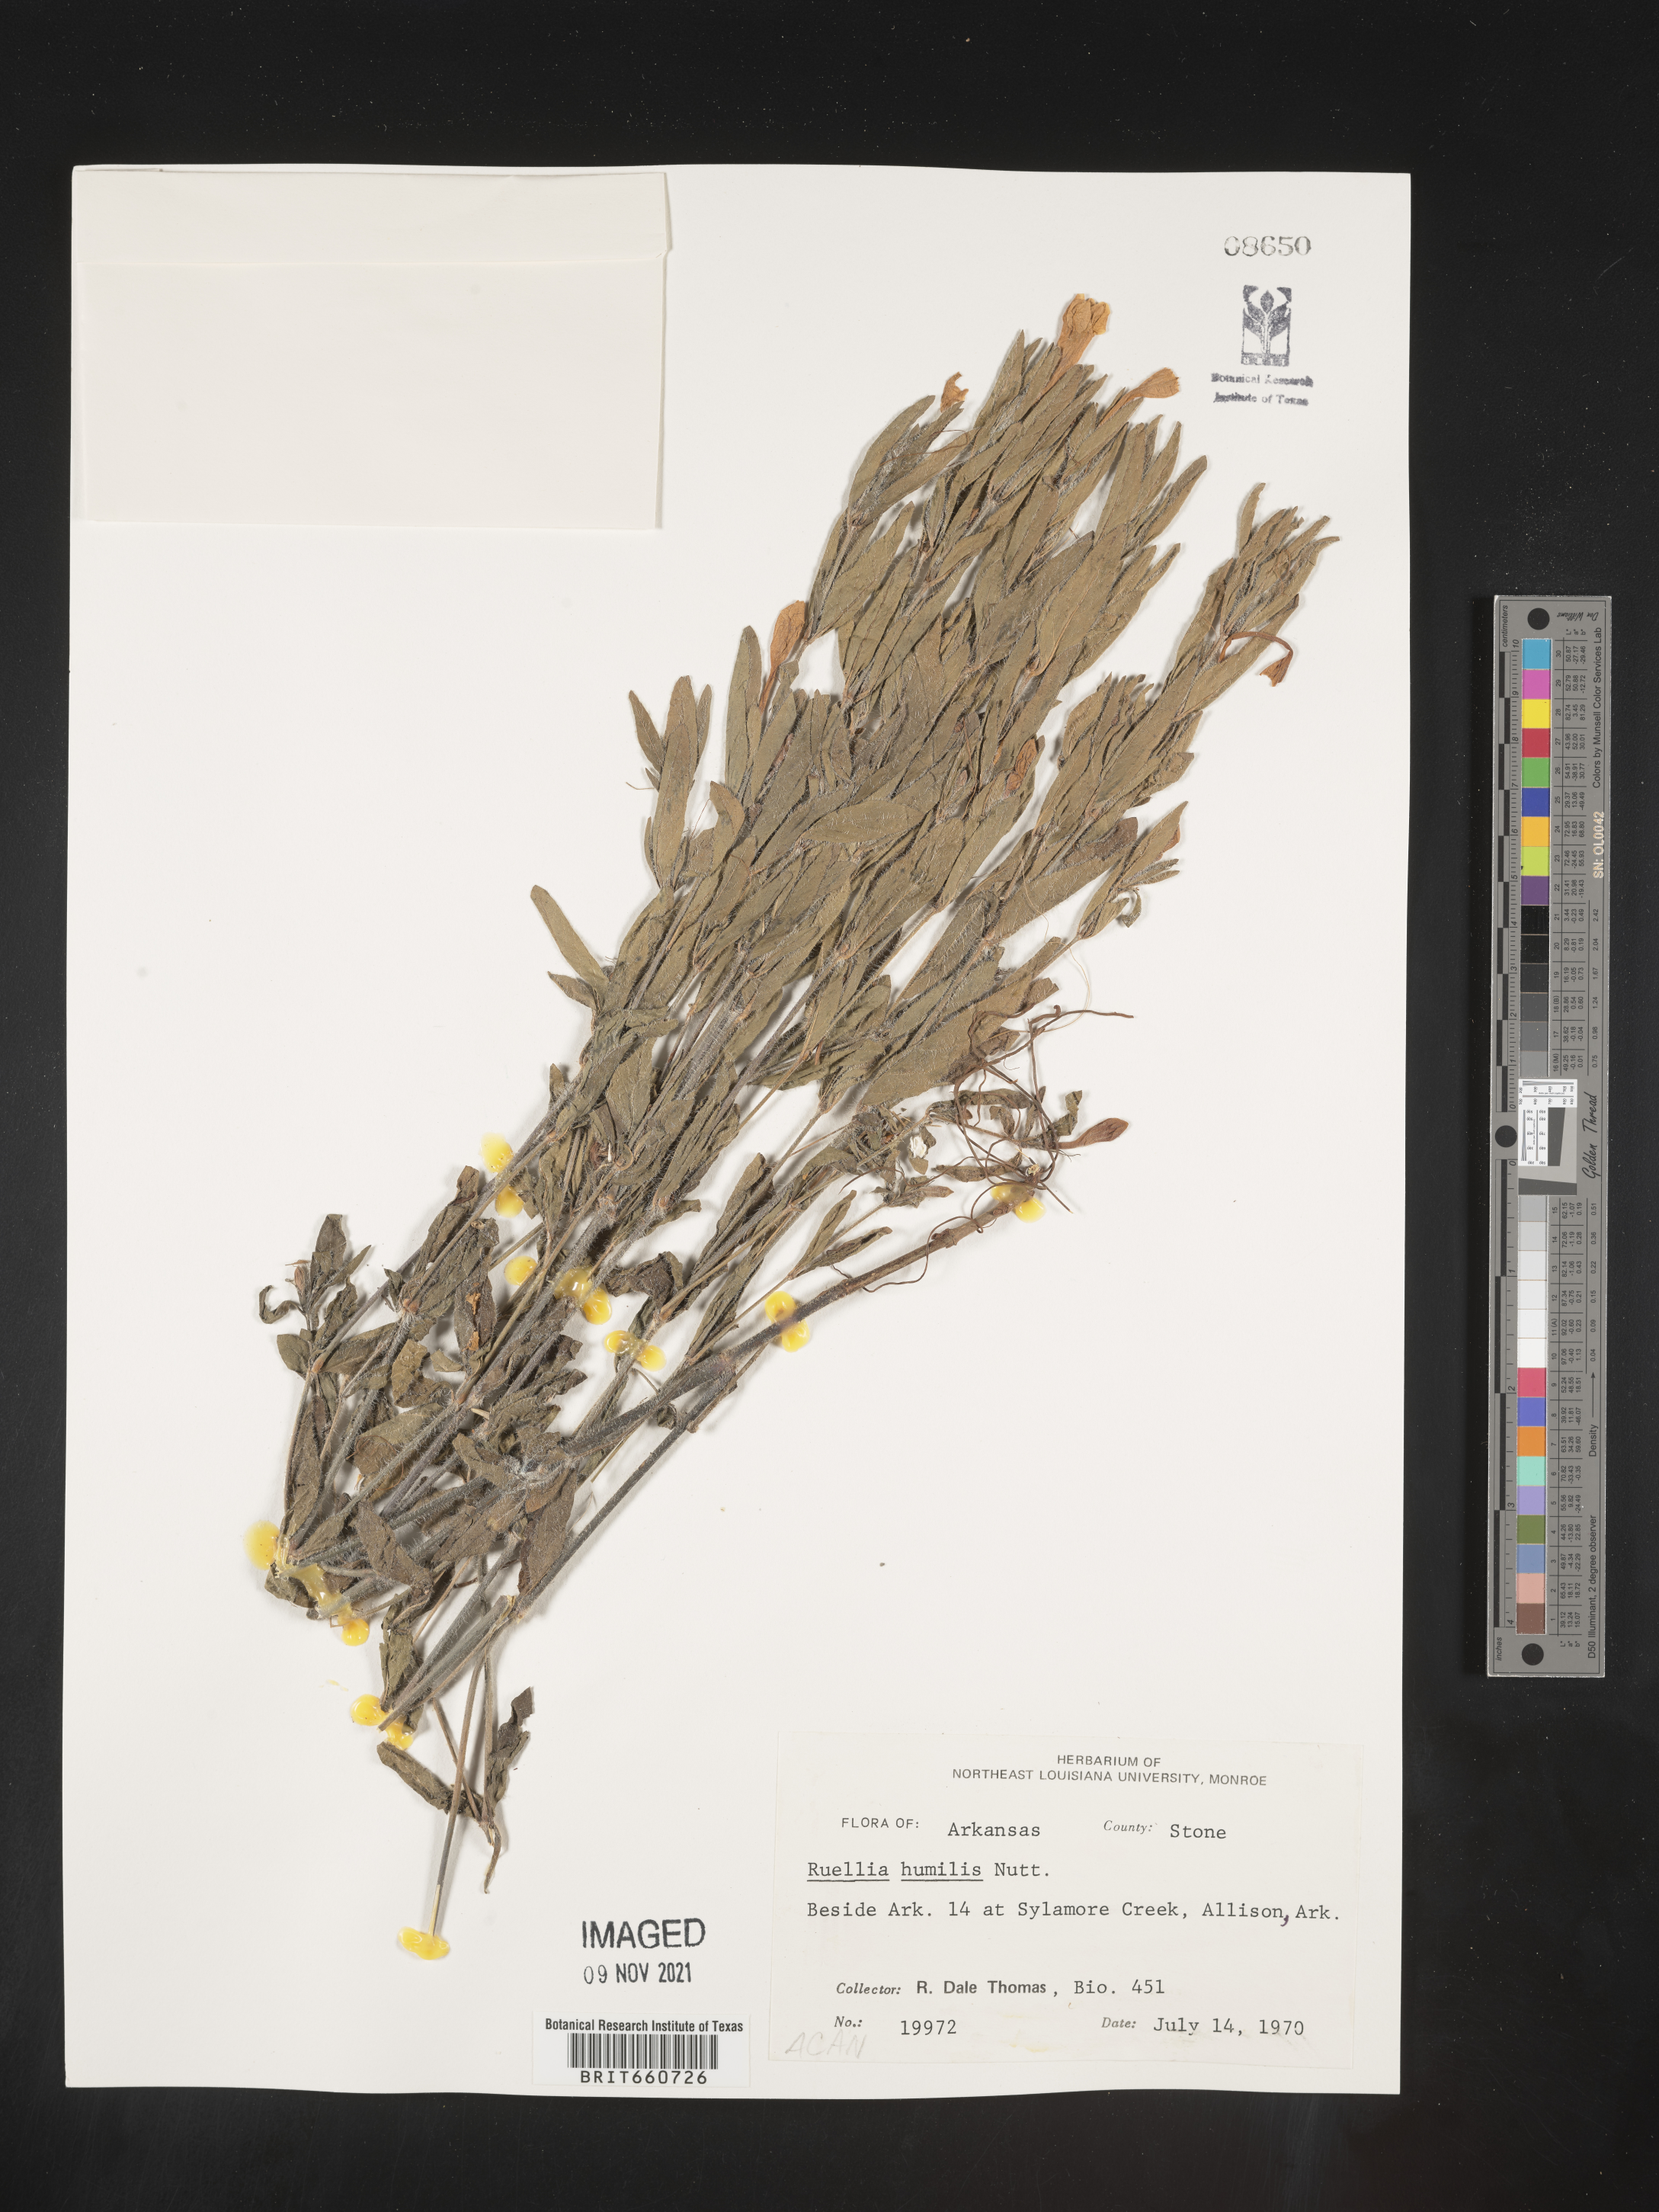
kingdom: Plantae
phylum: Tracheophyta
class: Magnoliopsida
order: Lamiales
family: Acanthaceae
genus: Ruellia
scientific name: Ruellia humilis
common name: Fringe-leaf ruellia
